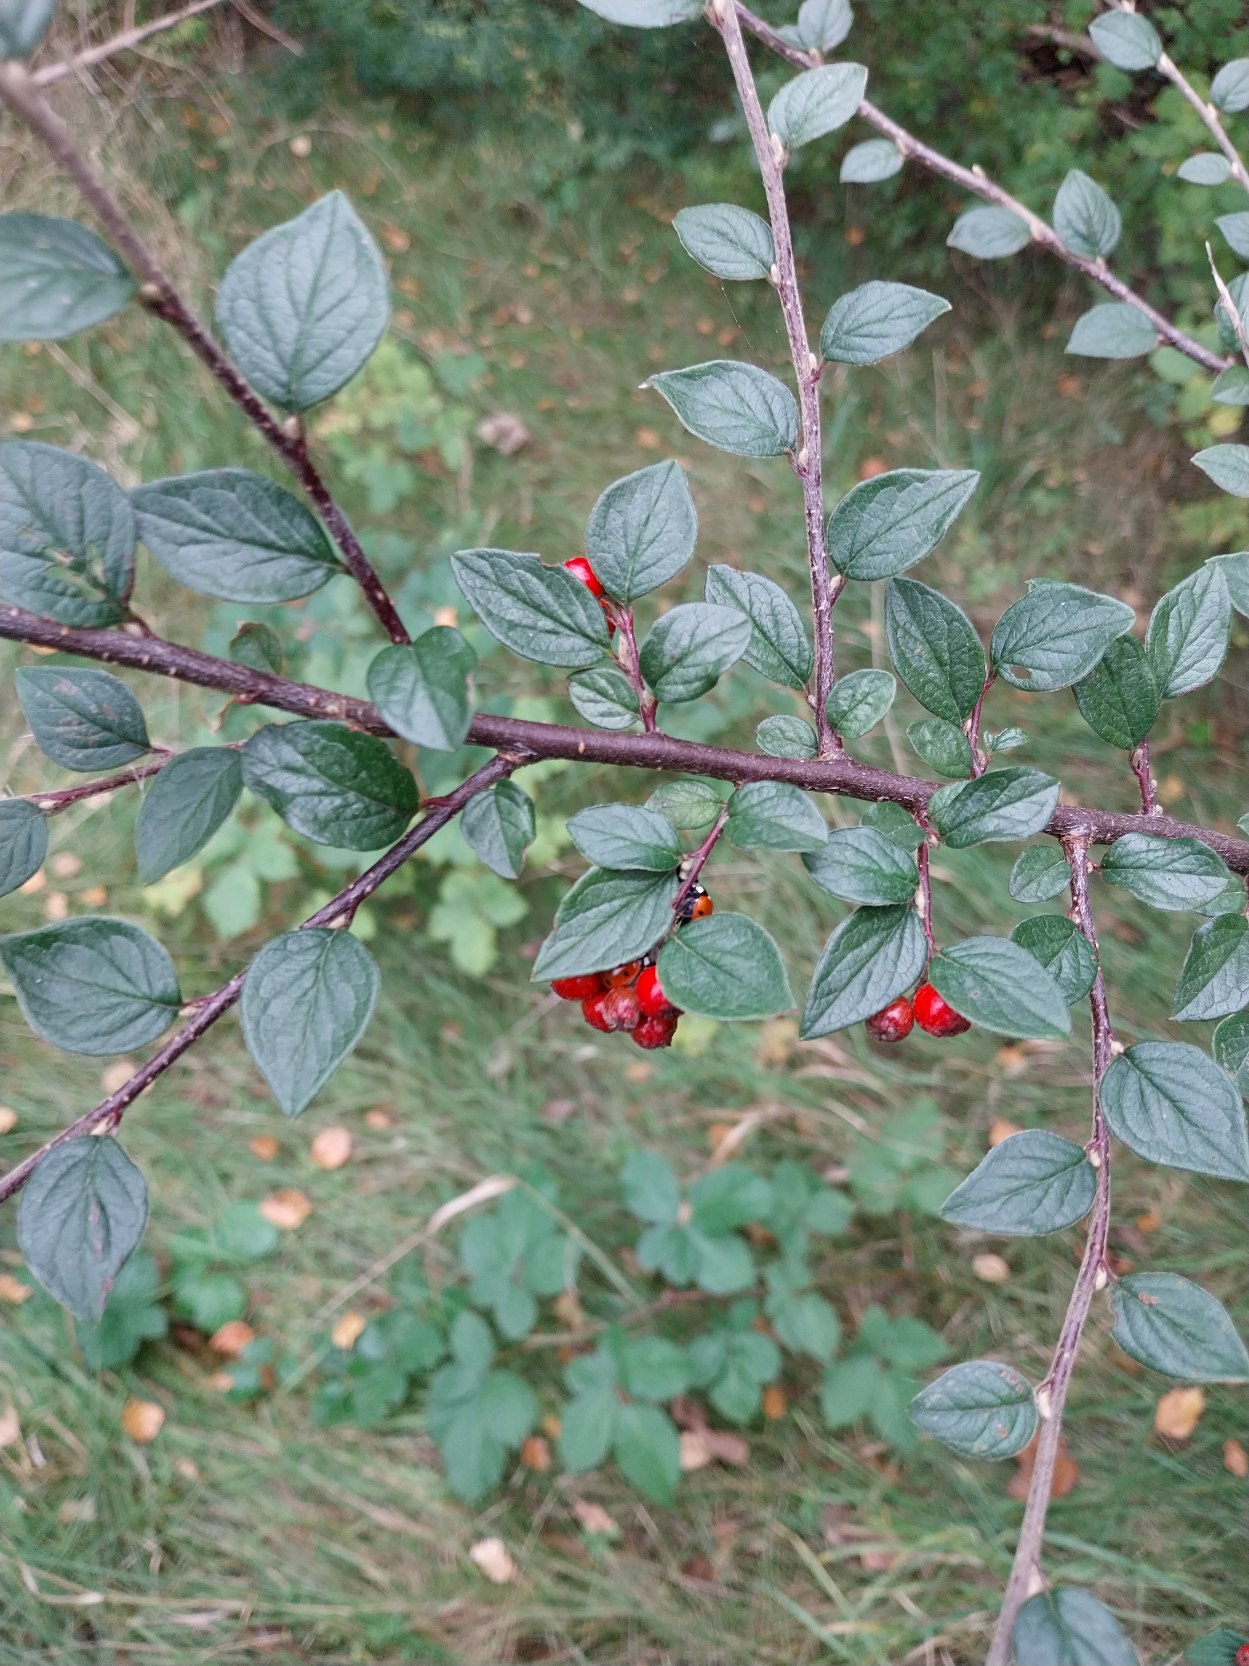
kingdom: Plantae
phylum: Tracheophyta
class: Magnoliopsida
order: Rosales
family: Rosaceae
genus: Cotoneaster
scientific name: Cotoneaster dielsianus
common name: Kinesisk dværgmispel
